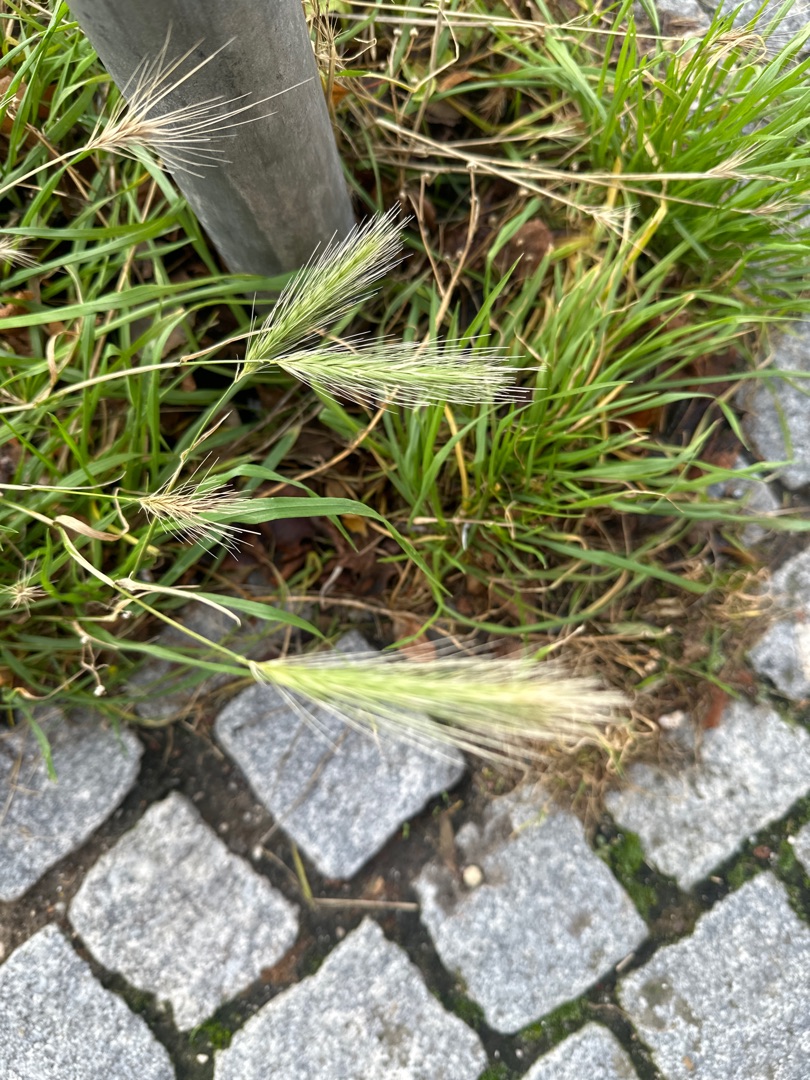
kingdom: Plantae
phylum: Tracheophyta
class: Liliopsida
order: Poales
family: Poaceae
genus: Hordeum
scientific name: Hordeum murinum
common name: Gold byg
